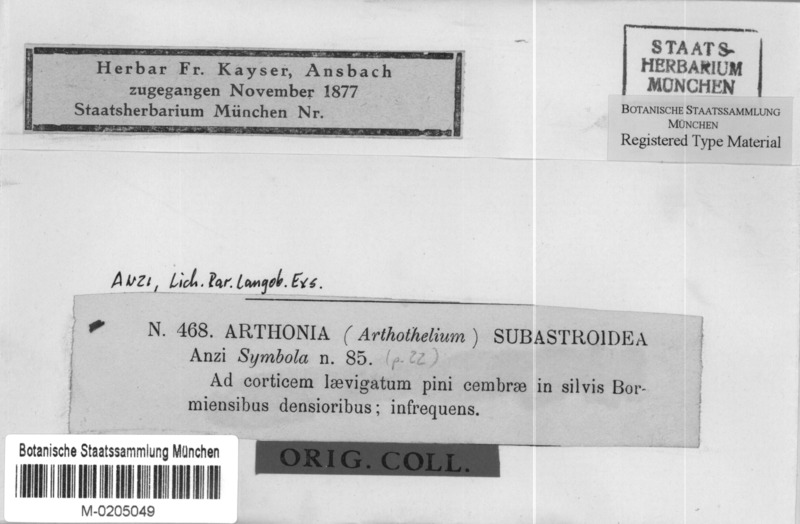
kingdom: Fungi
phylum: Ascomycota
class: Dothideomycetes
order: Pleosporales
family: Naetrocymbaceae
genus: Naetrocymbe
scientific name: Naetrocymbe punctiformis
